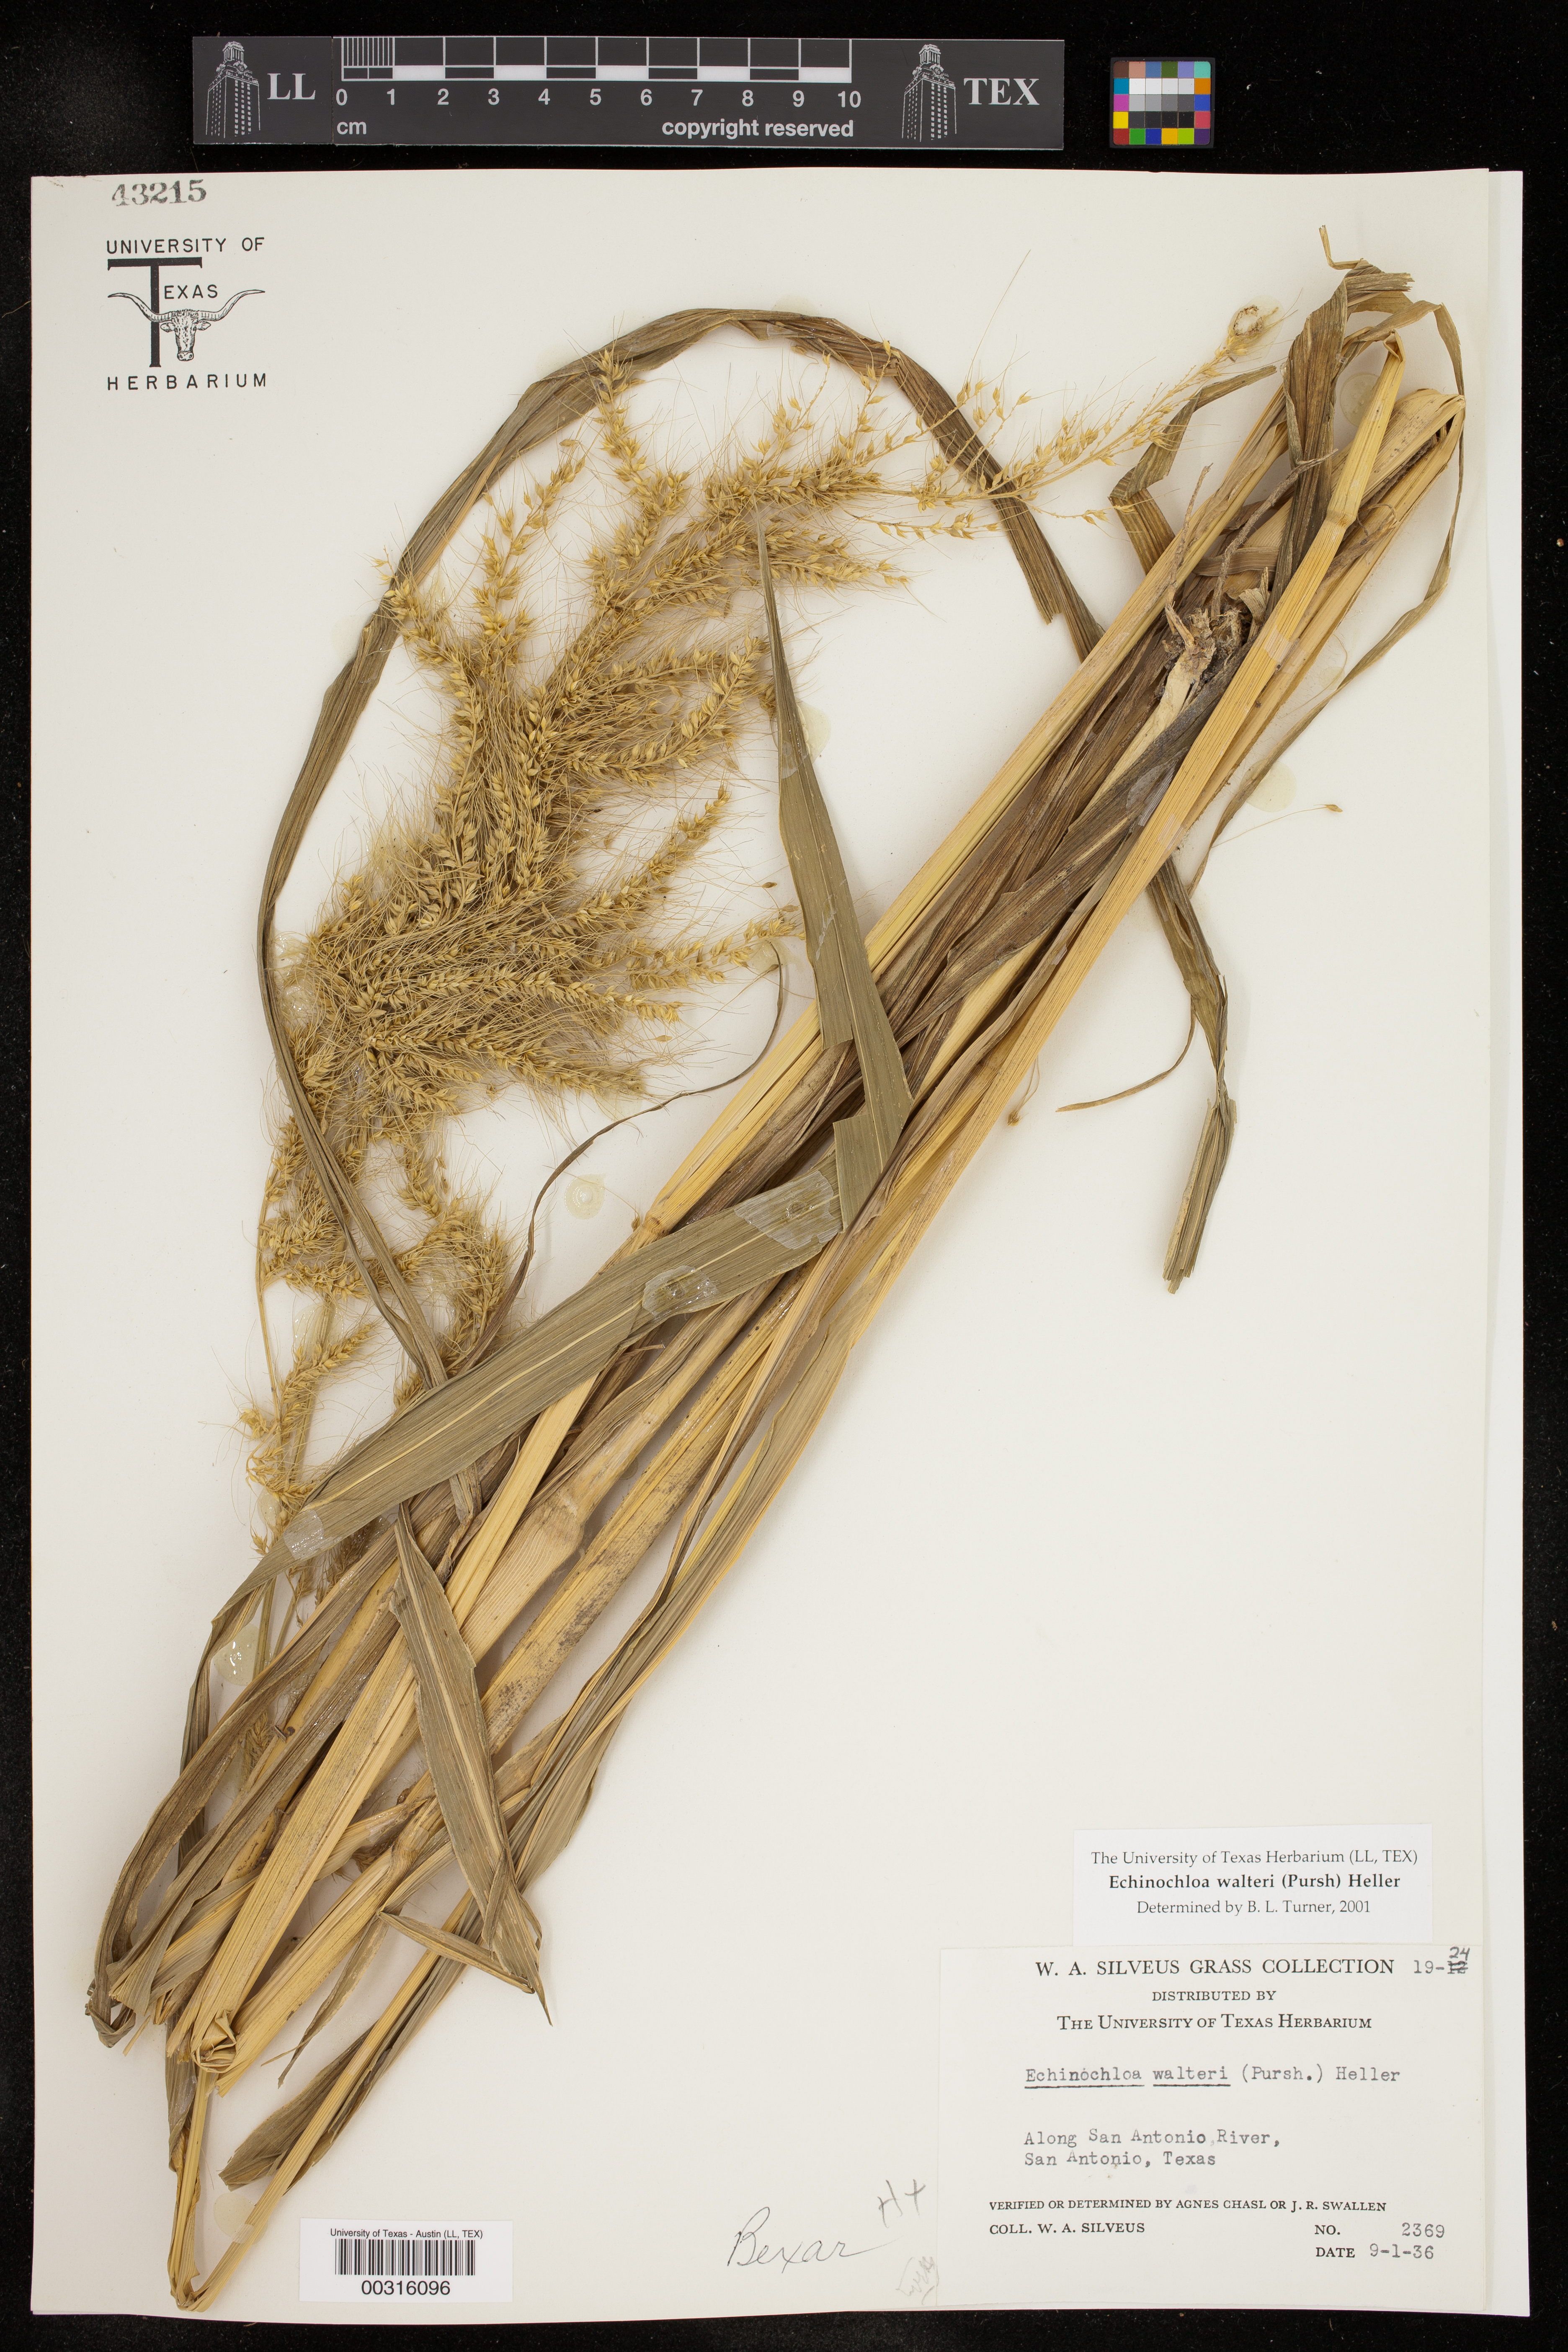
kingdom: Plantae
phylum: Tracheophyta
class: Liliopsida
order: Poales
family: Poaceae
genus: Echinochloa
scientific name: Echinochloa walteri
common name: Coast barnyard grass
